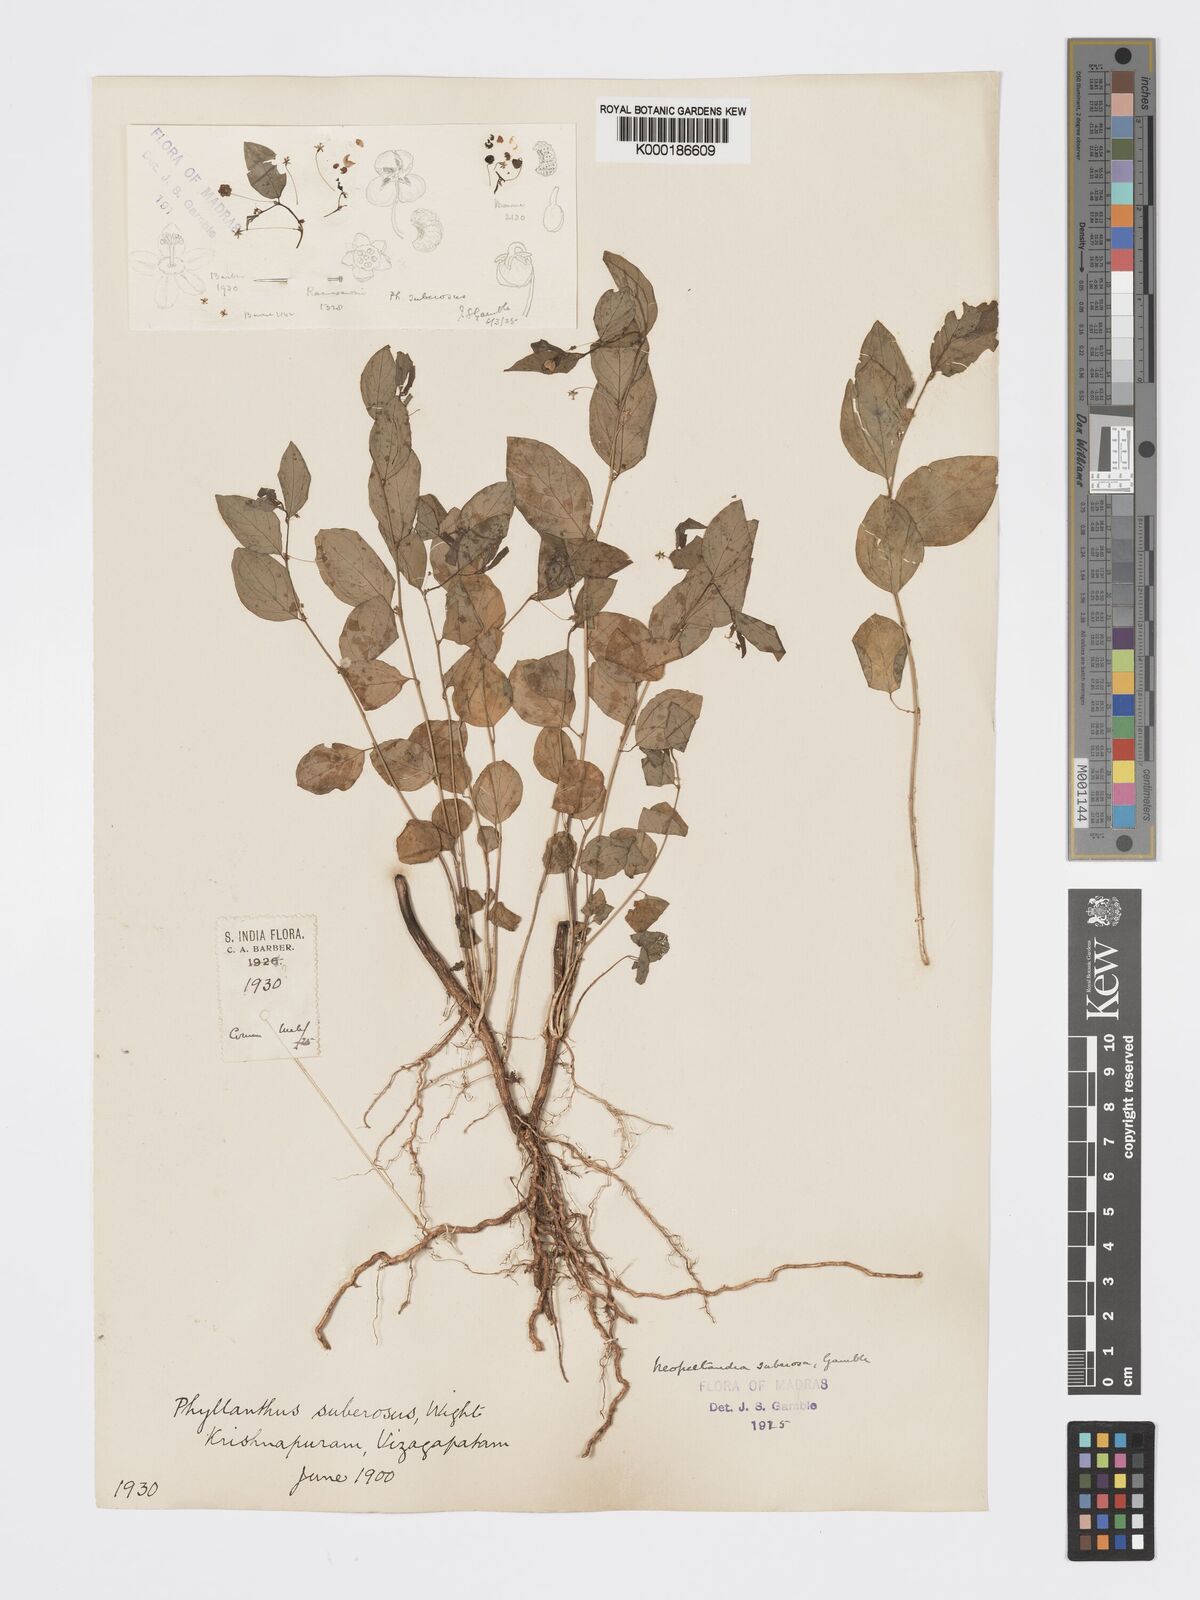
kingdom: Plantae
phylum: Tracheophyta
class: Magnoliopsida
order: Malpighiales
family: Phyllanthaceae
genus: Meineckia
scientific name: Meineckia parvifolia
